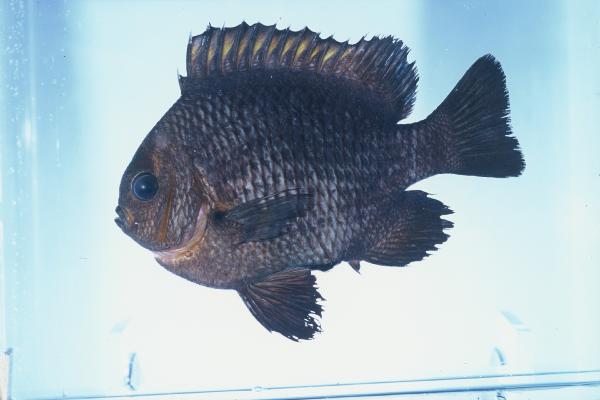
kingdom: Animalia
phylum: Chordata
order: Perciformes
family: Pomacentridae
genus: Dascyllus
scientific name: Dascyllus trimaculatus
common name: Threespot dascyllus
